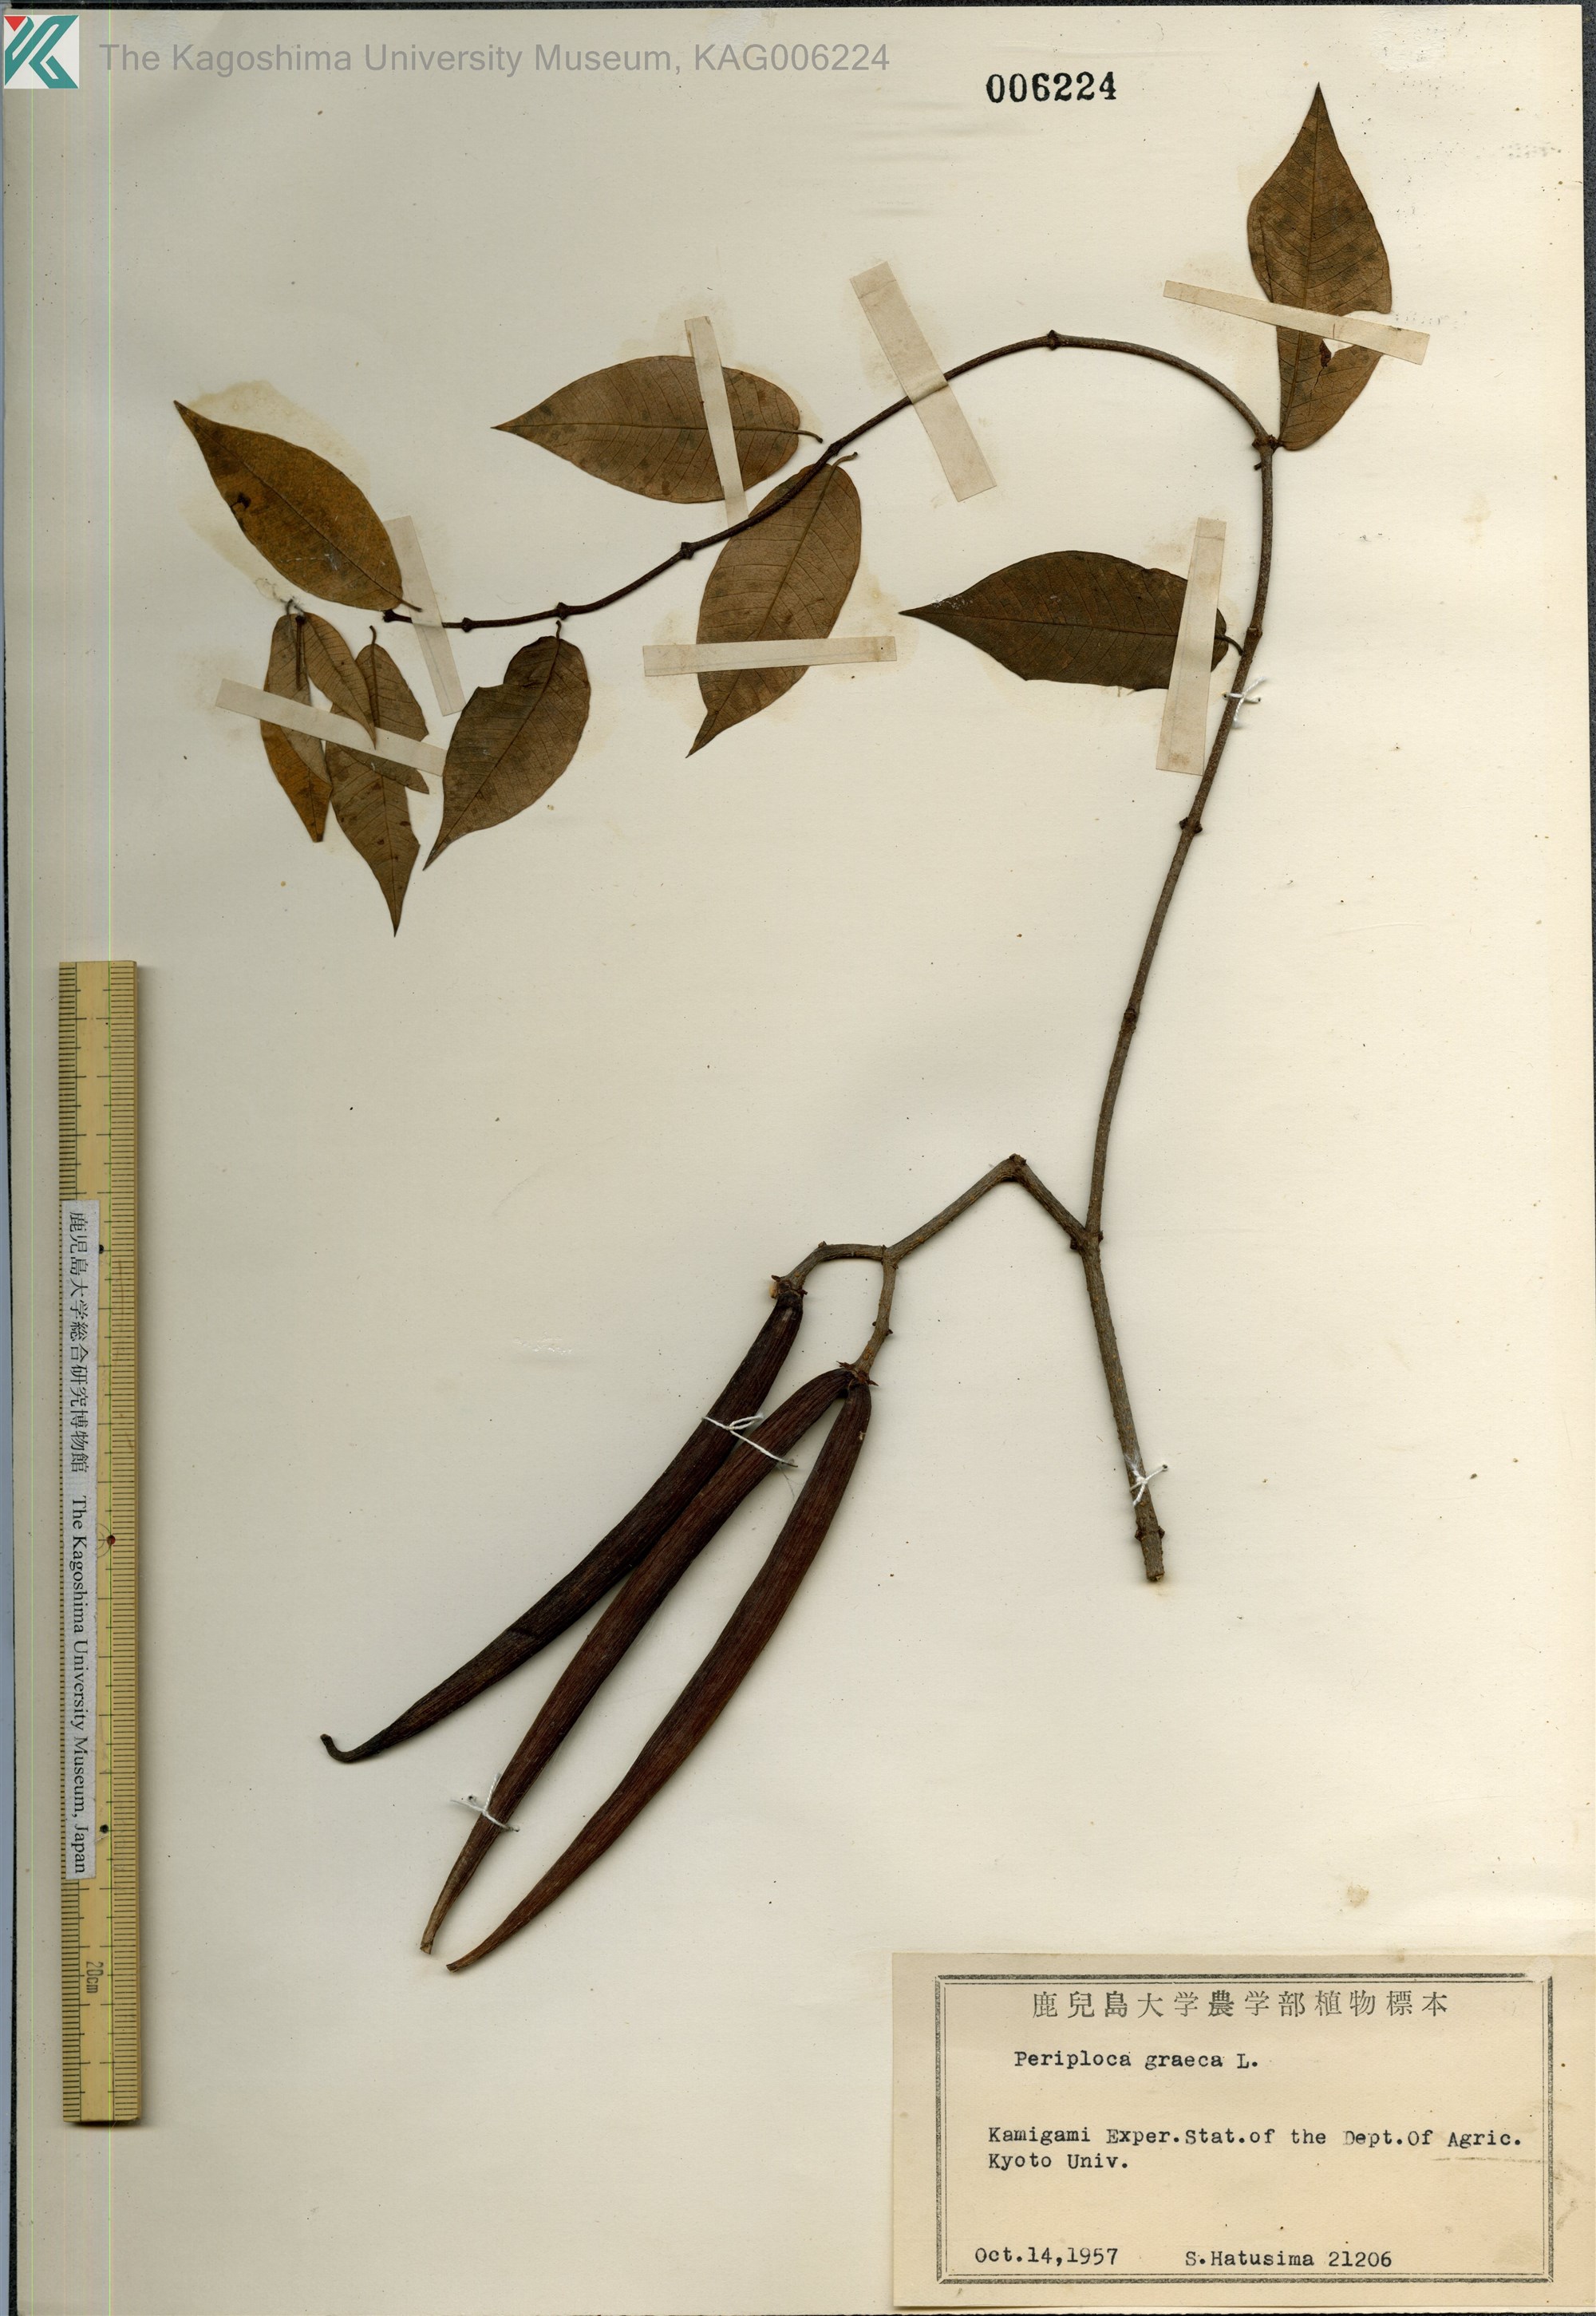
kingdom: Plantae
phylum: Tracheophyta
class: Magnoliopsida
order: Gentianales
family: Apocynaceae
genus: Periploca
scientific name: Periploca graeca
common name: Silkvine
